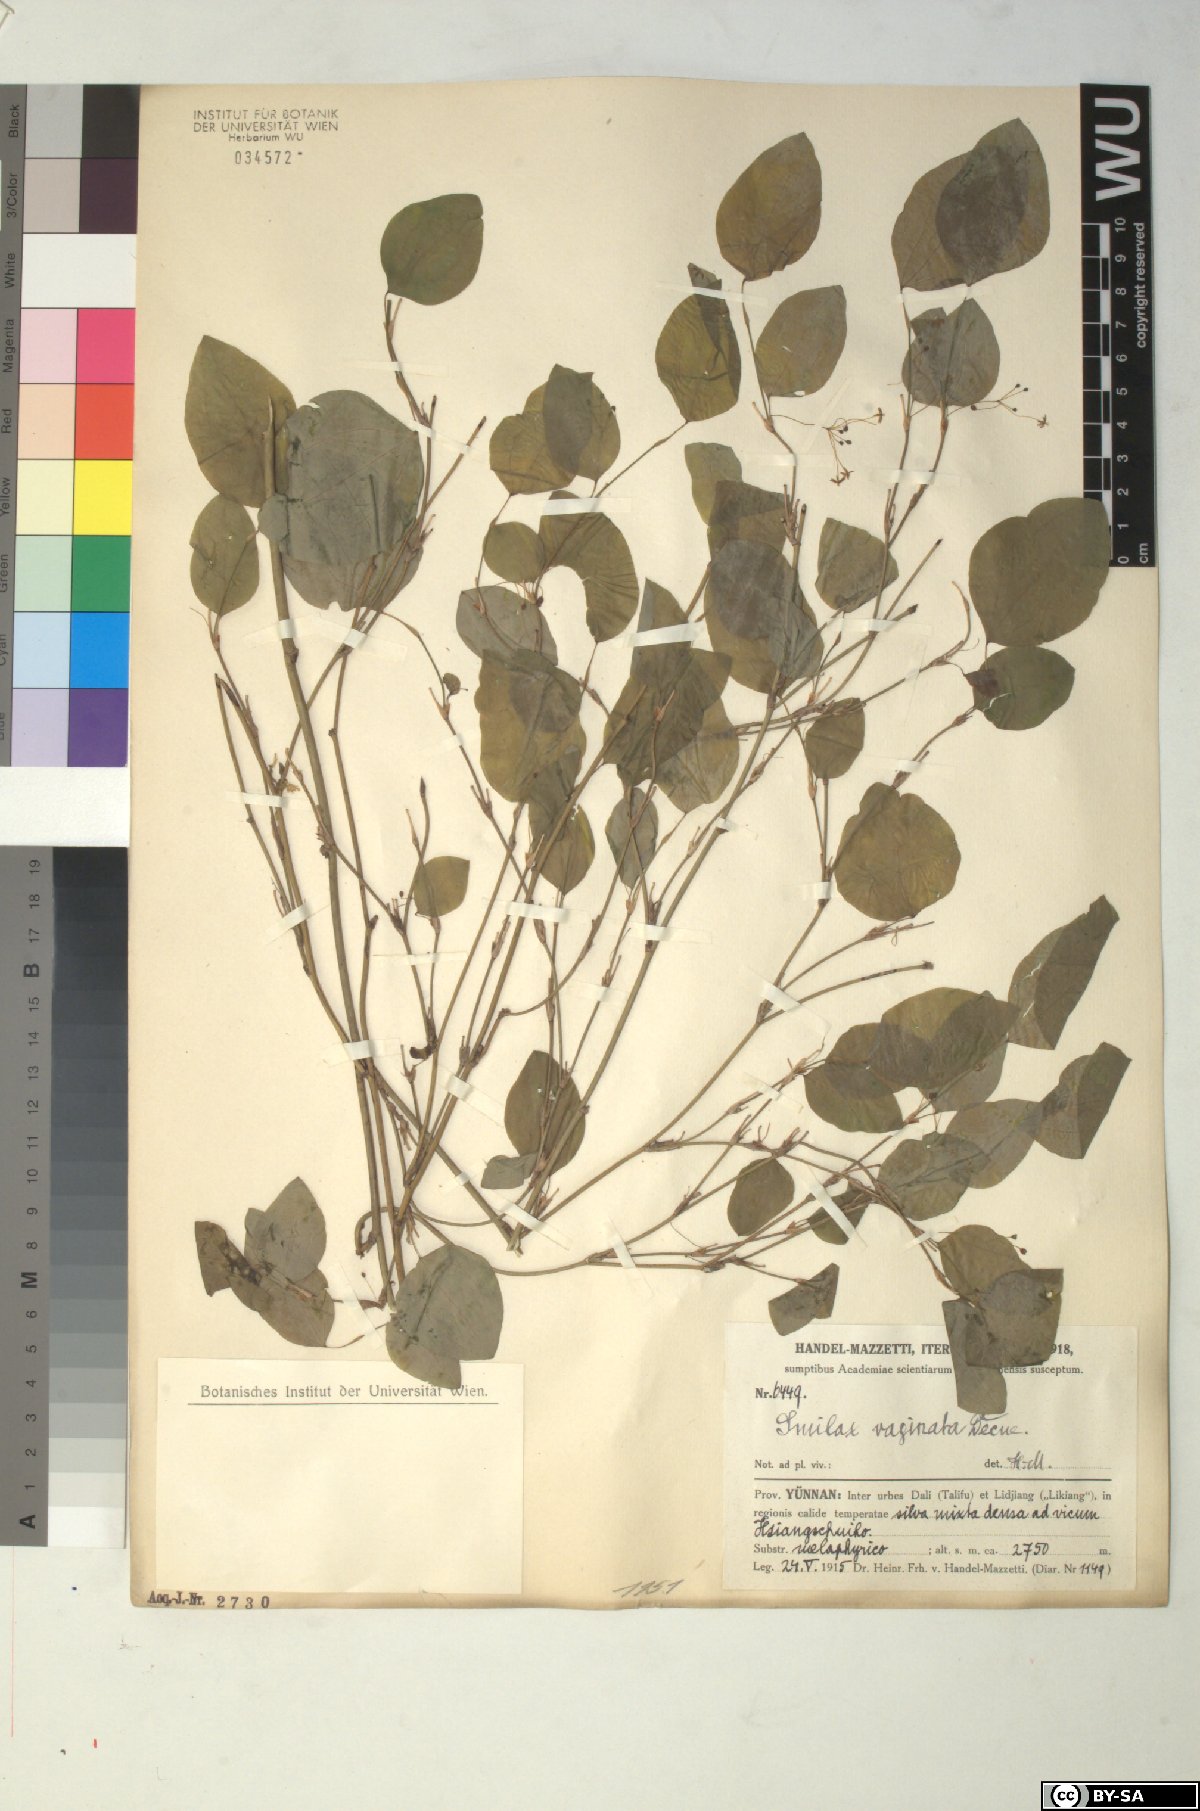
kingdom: Plantae
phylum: Tracheophyta
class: Liliopsida
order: Liliales
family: Smilacaceae
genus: Smilax
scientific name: Smilax stans
